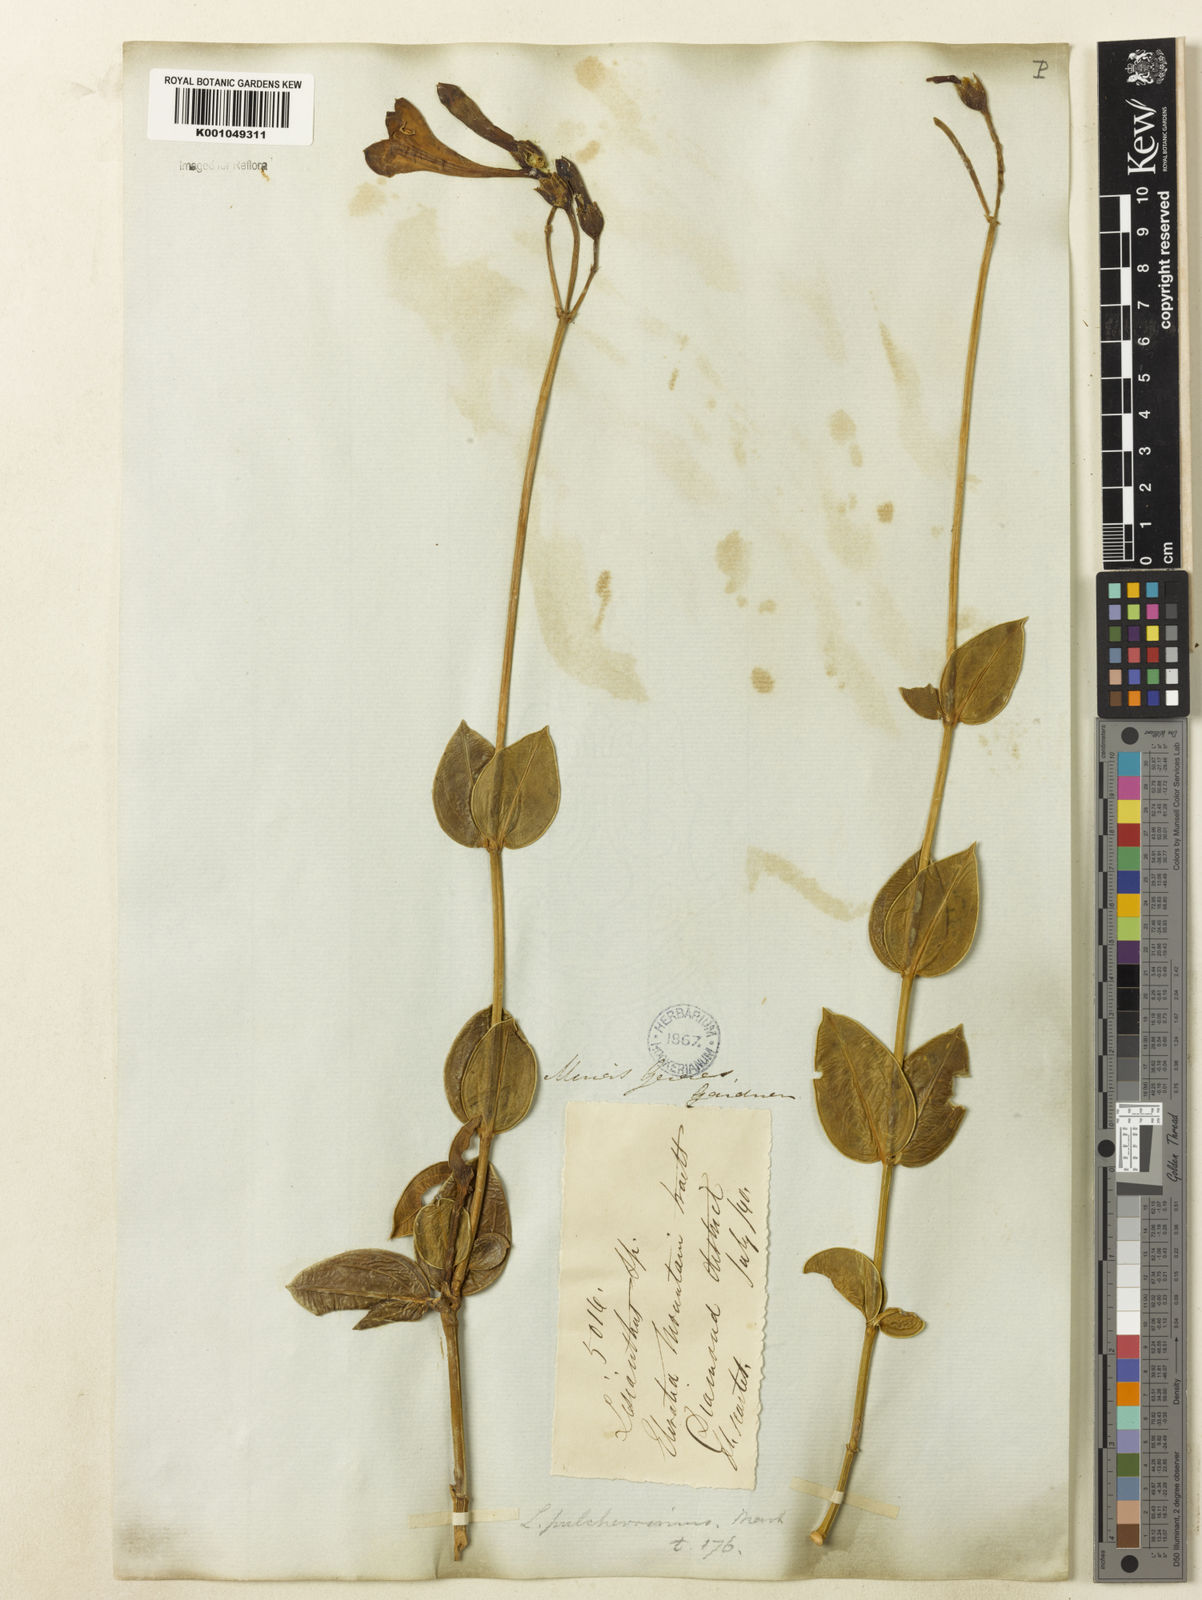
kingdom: Plantae
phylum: Tracheophyta
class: Magnoliopsida
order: Gentianales
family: Gentianaceae
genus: Calolisianthus
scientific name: Calolisianthus pulcherrimus
